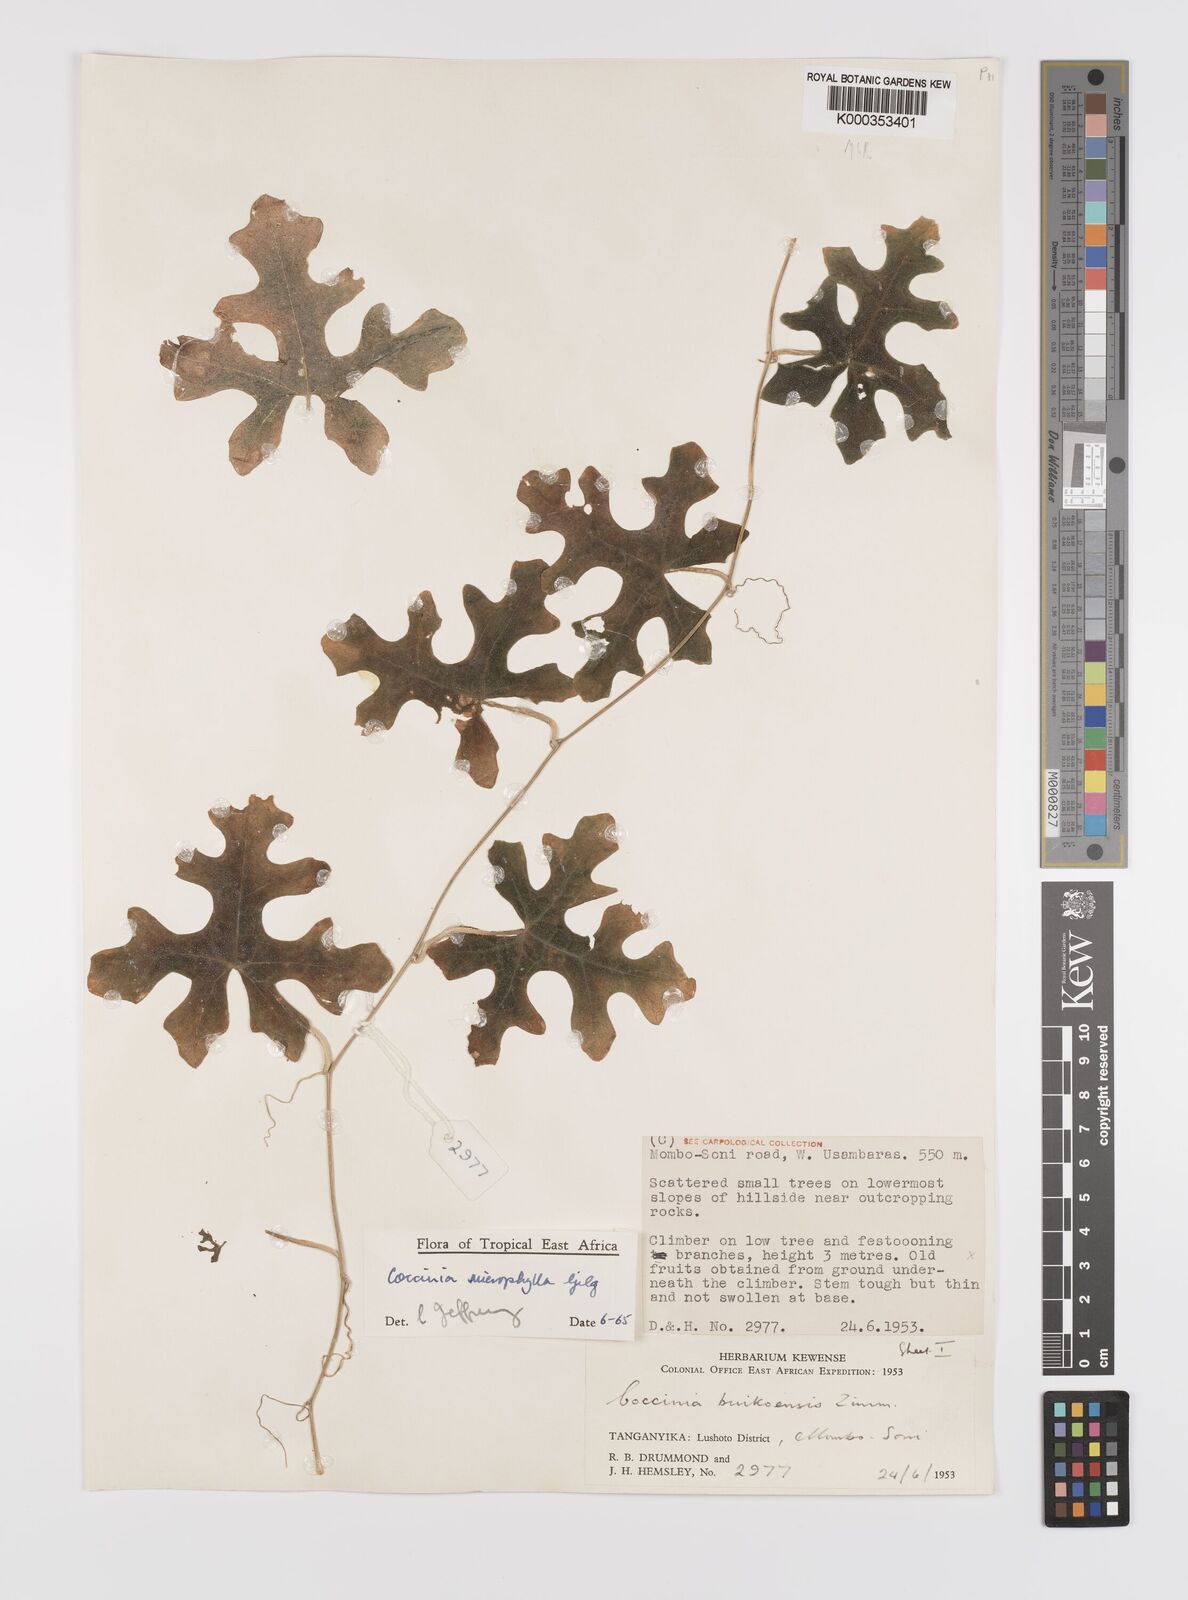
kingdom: Plantae
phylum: Tracheophyta
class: Magnoliopsida
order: Cucurbitales
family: Cucurbitaceae
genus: Coccinia
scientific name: Coccinia microphylla
